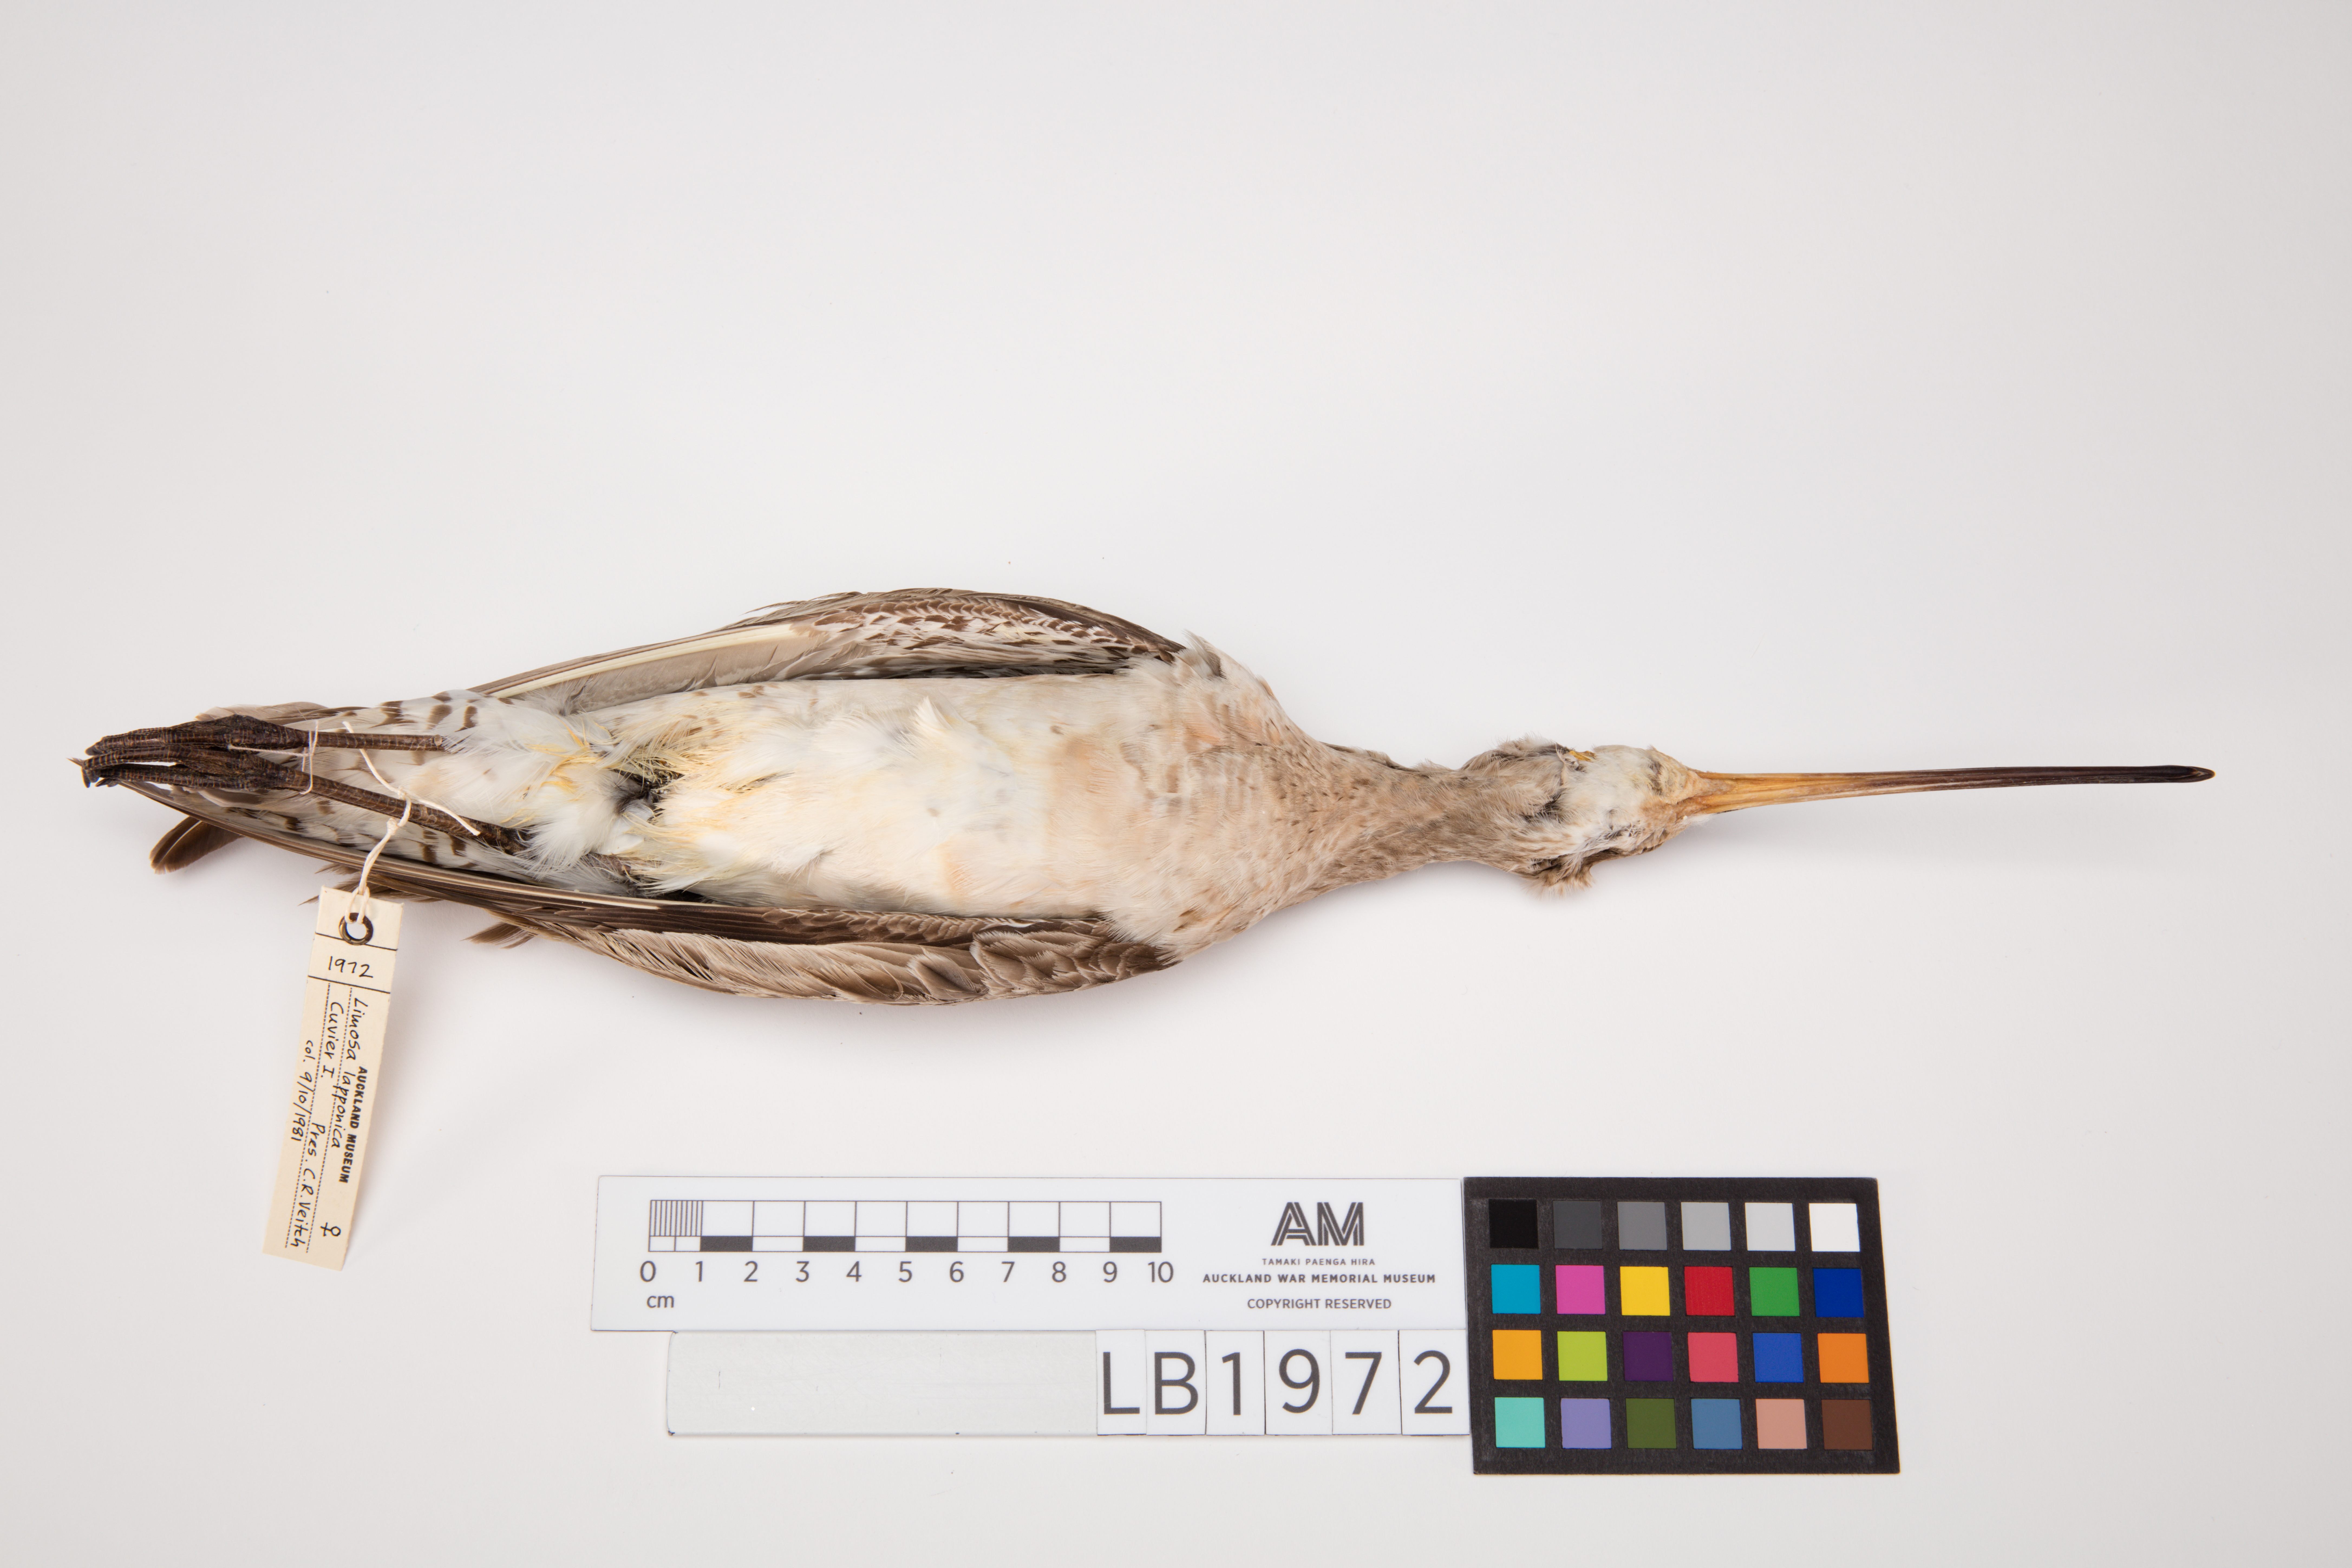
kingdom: Animalia
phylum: Chordata
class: Aves
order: Charadriiformes
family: Scolopacidae
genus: Limosa
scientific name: Limosa lapponica
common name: Bar-tailed godwit
